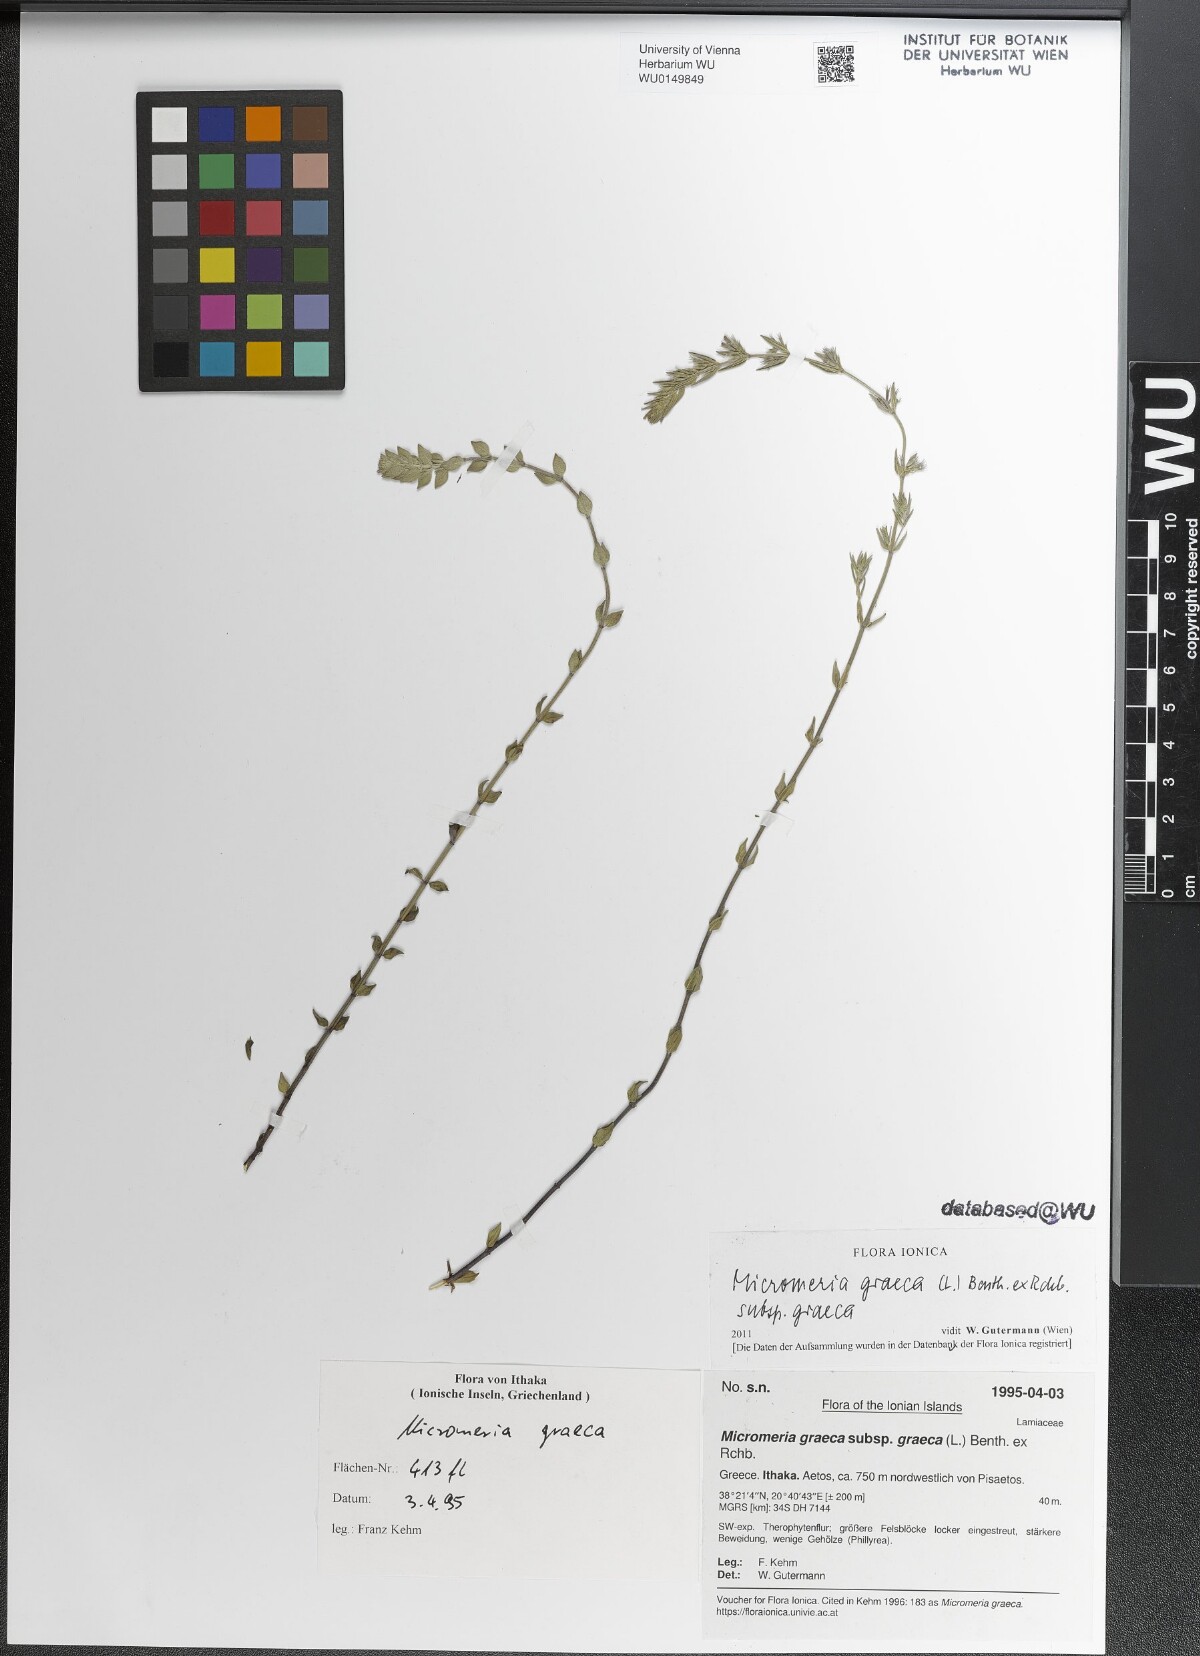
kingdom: Plantae
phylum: Tracheophyta
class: Magnoliopsida
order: Lamiales
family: Lamiaceae
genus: Micromeria
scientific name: Micromeria graeca
